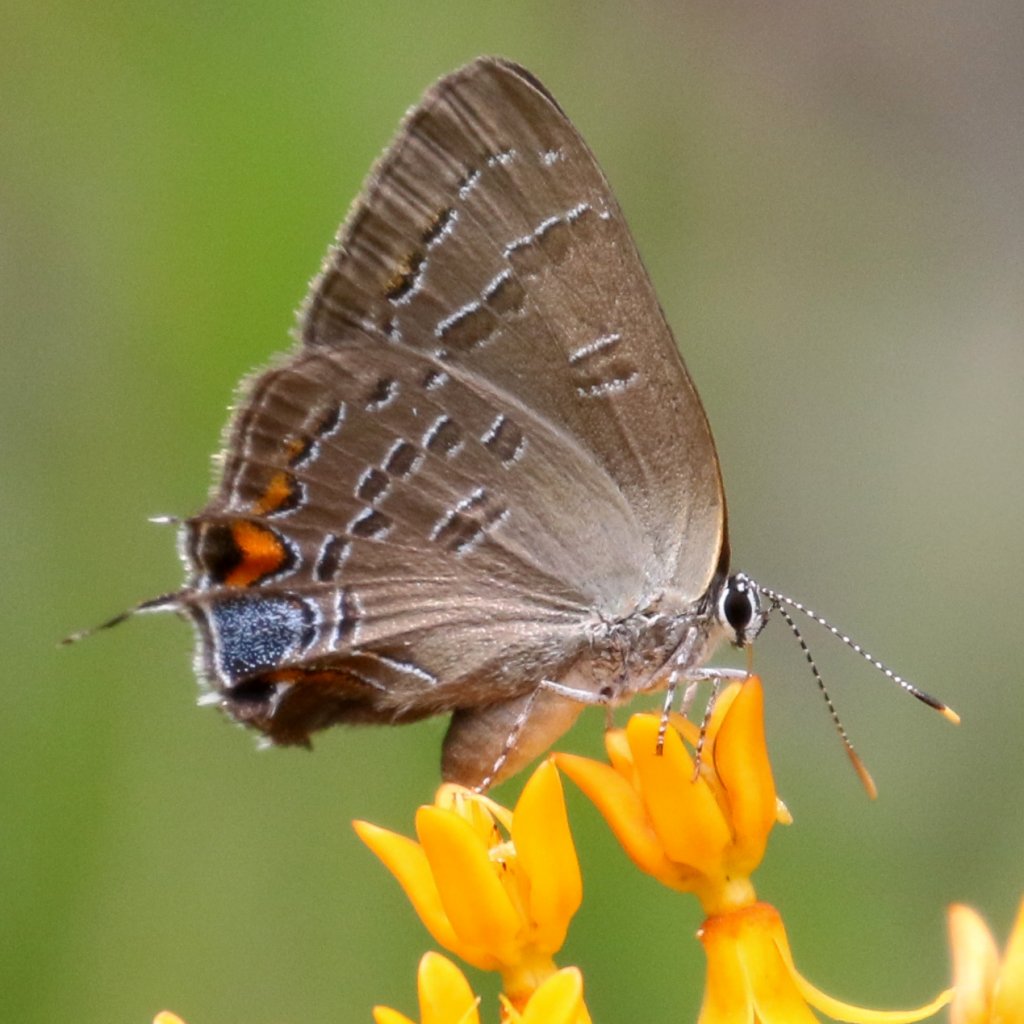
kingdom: Animalia
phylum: Arthropoda
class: Insecta
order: Lepidoptera
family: Lycaenidae
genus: Satyrium
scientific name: Satyrium calanus
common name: Banded Hairstreak
